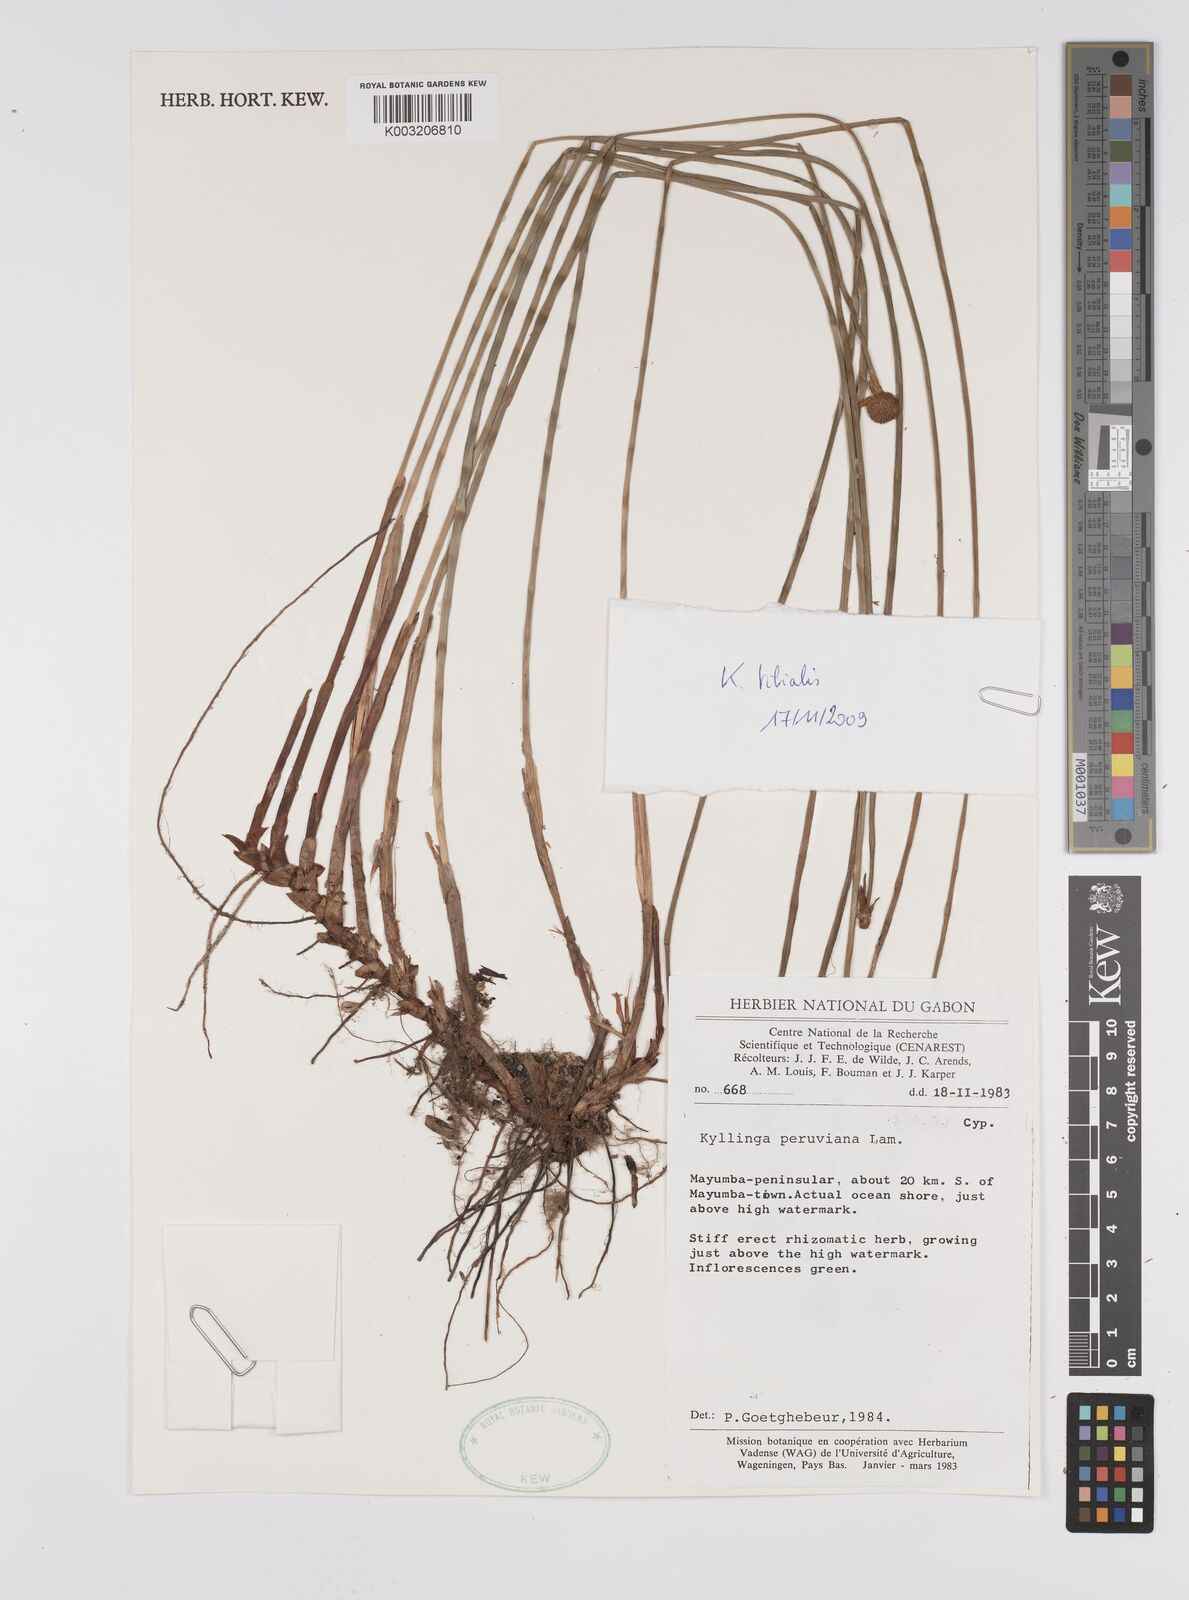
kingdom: Plantae
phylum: Tracheophyta
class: Liliopsida
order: Poales
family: Cyperaceae
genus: Cyperus
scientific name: Cyperus
